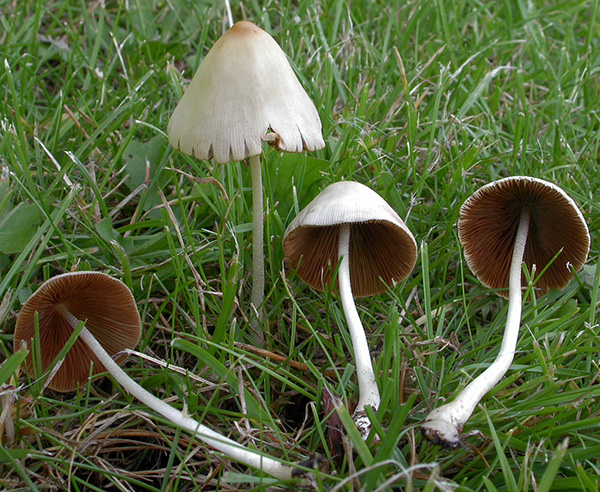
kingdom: Fungi
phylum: Basidiomycota
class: Agaricomycetes
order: Agaricales
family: Bolbitiaceae
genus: Conocybe
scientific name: Conocybe apala
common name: mælkehvid keglehat
